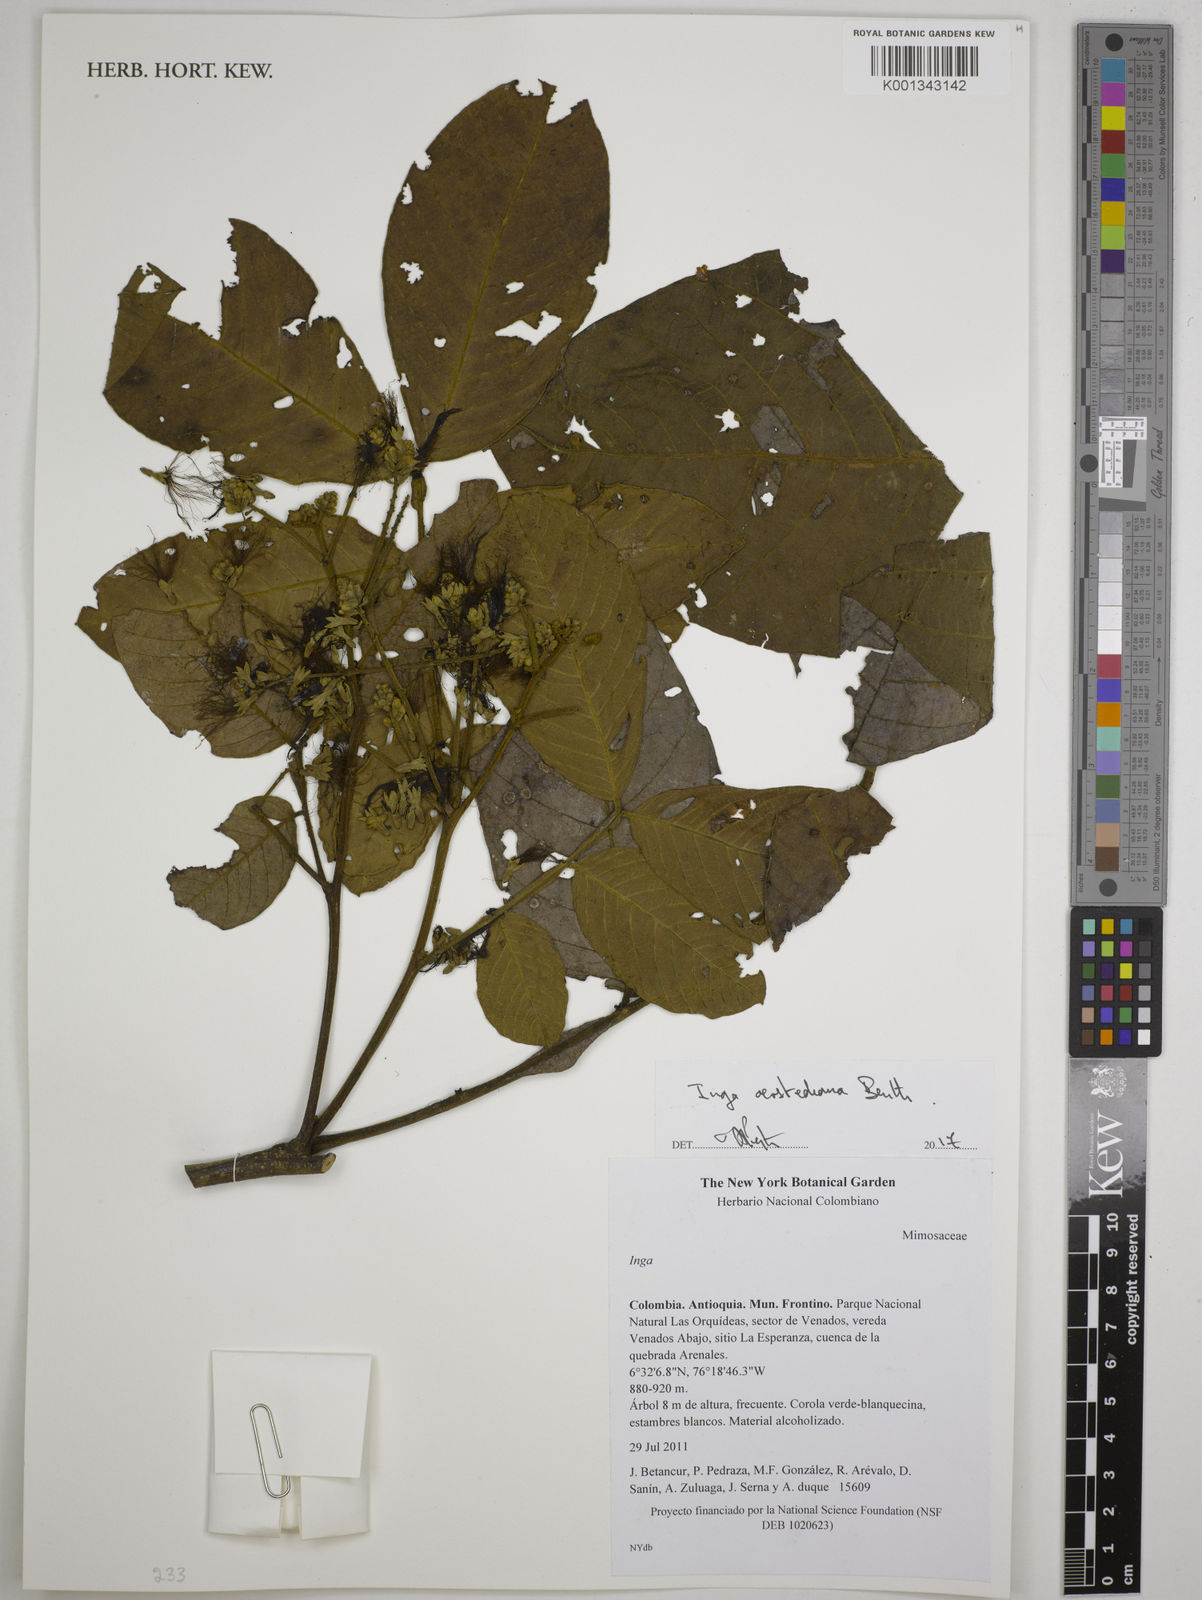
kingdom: Plantae
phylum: Tracheophyta
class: Magnoliopsida
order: Fabales
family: Fabaceae
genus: Inga
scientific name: Inga oerstediana
